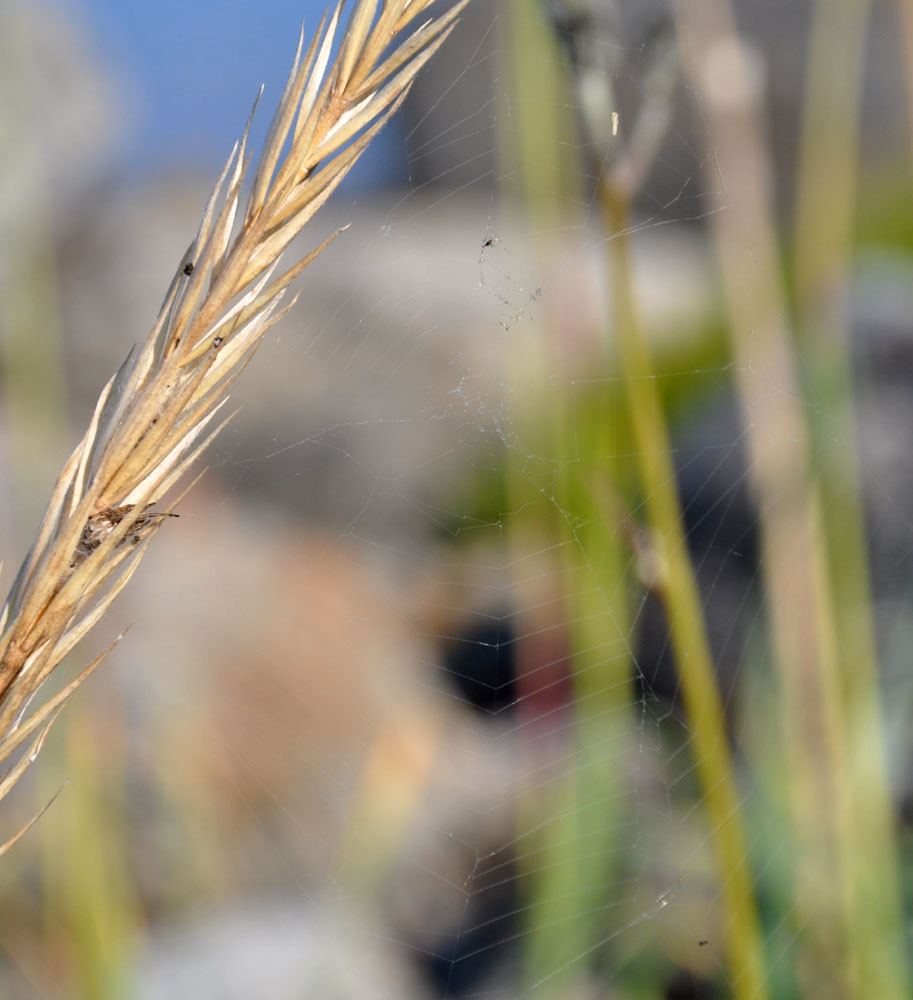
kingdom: Animalia
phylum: Arthropoda
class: Arachnida
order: Araneae
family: Araneidae
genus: Larinioides
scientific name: Larinioides cornutus
